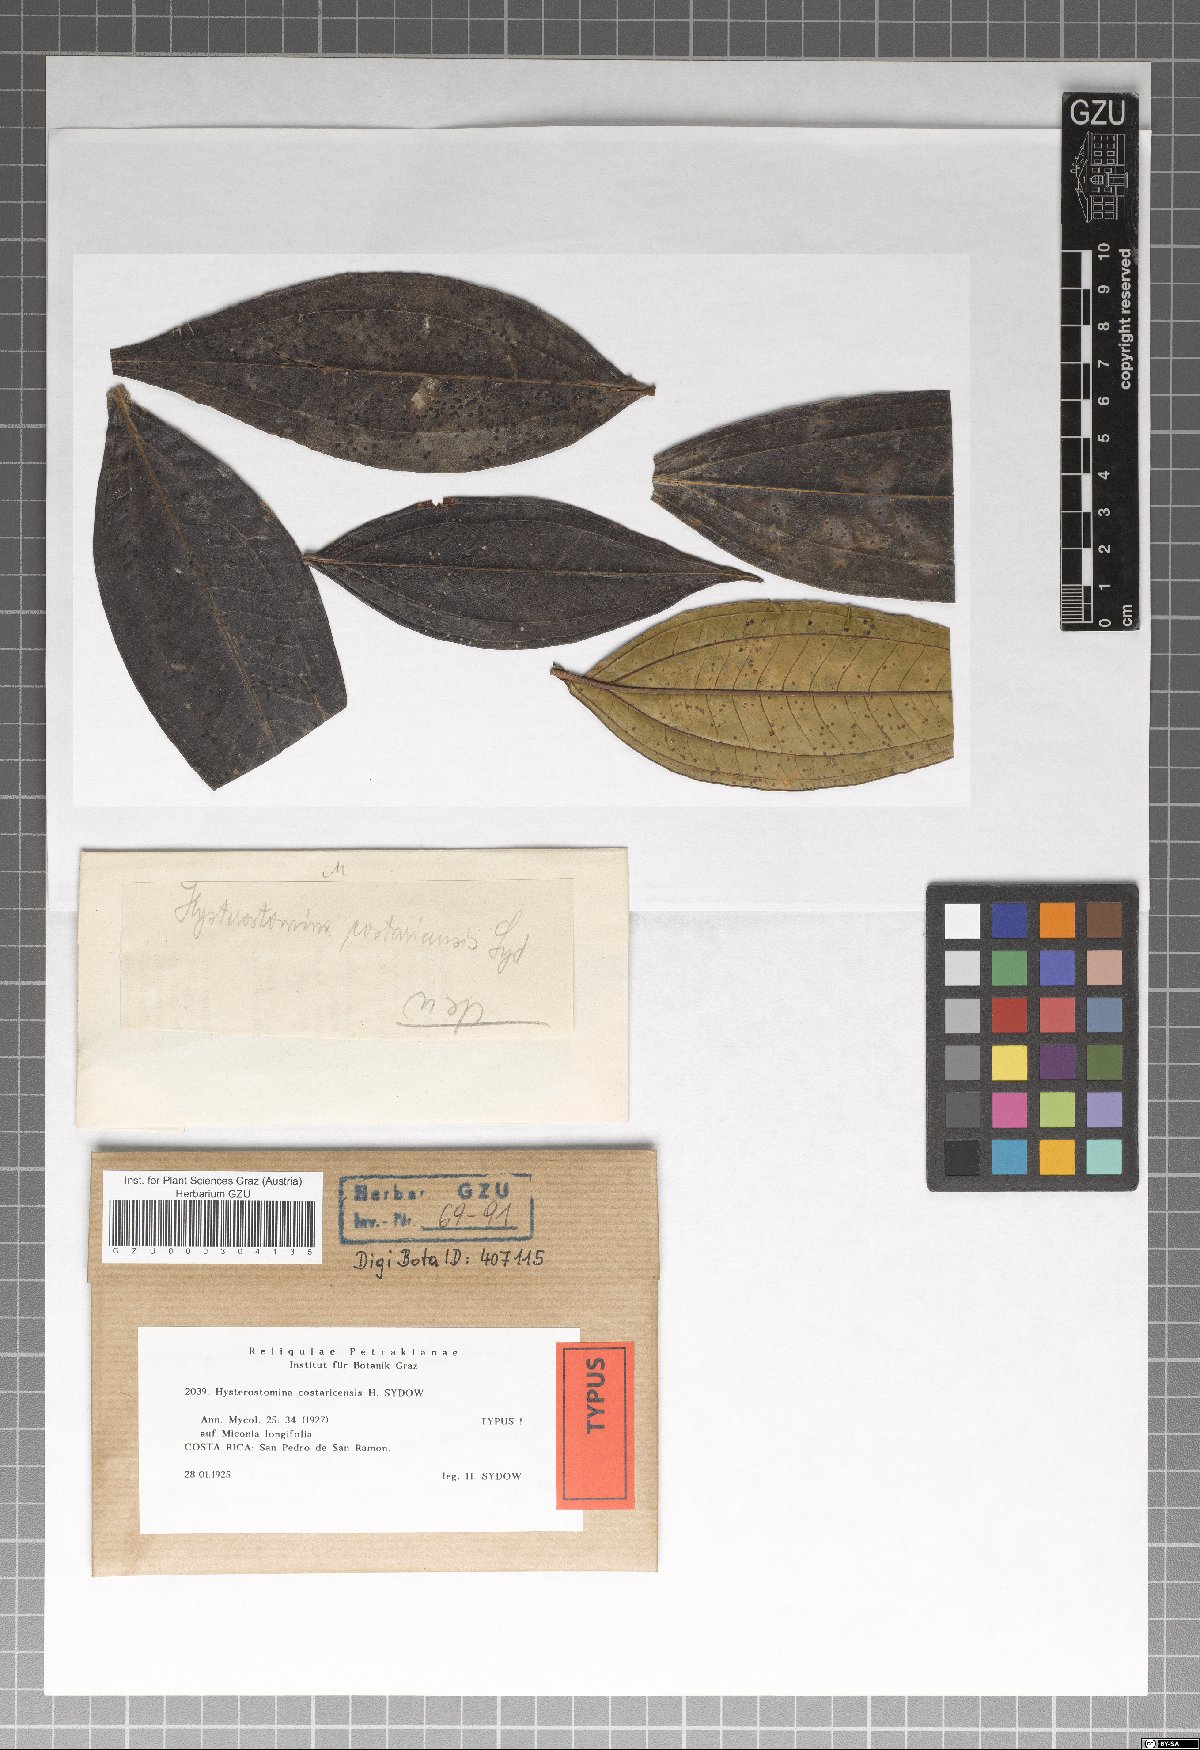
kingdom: Fungi
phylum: Ascomycota
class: Dothideomycetes
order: Asterinales
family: Asterinaceae
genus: Viegasia
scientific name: Viegasia costaricensis
